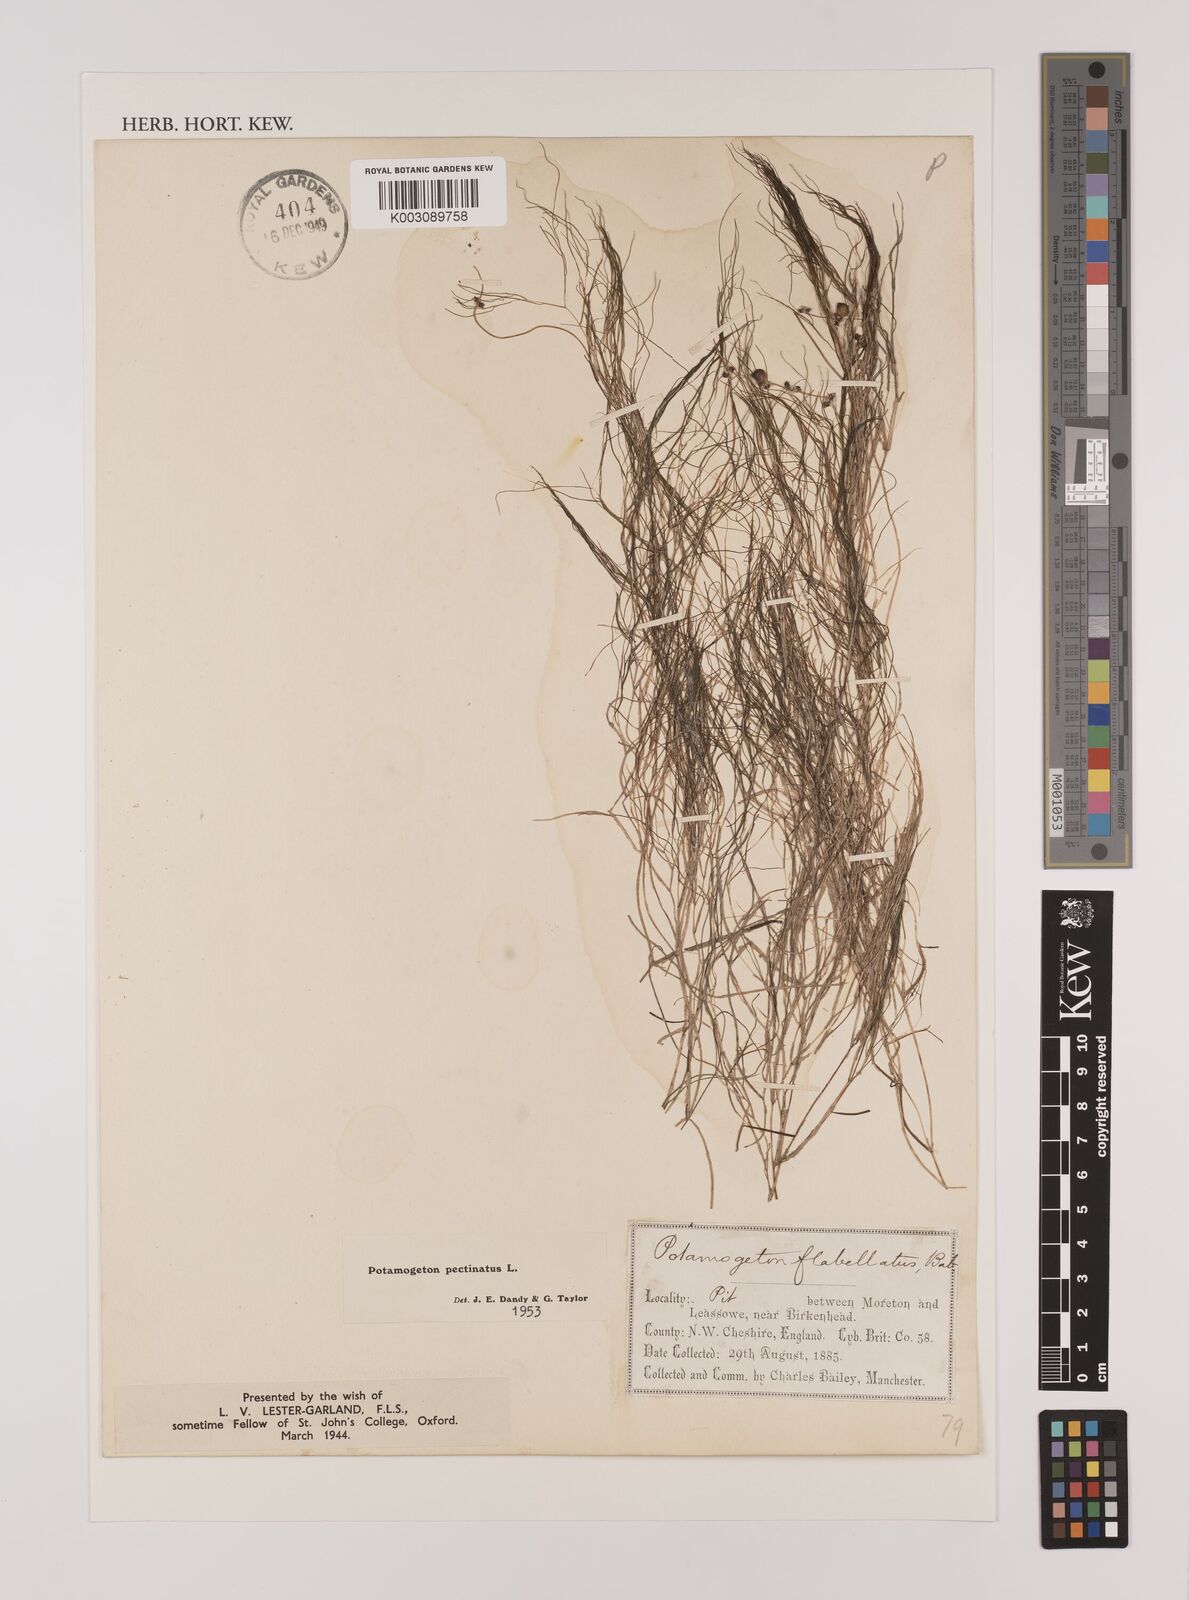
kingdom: Plantae
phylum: Tracheophyta
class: Liliopsida
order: Alismatales
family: Potamogetonaceae
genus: Stuckenia
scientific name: Stuckenia pectinata
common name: Sago pondweed
